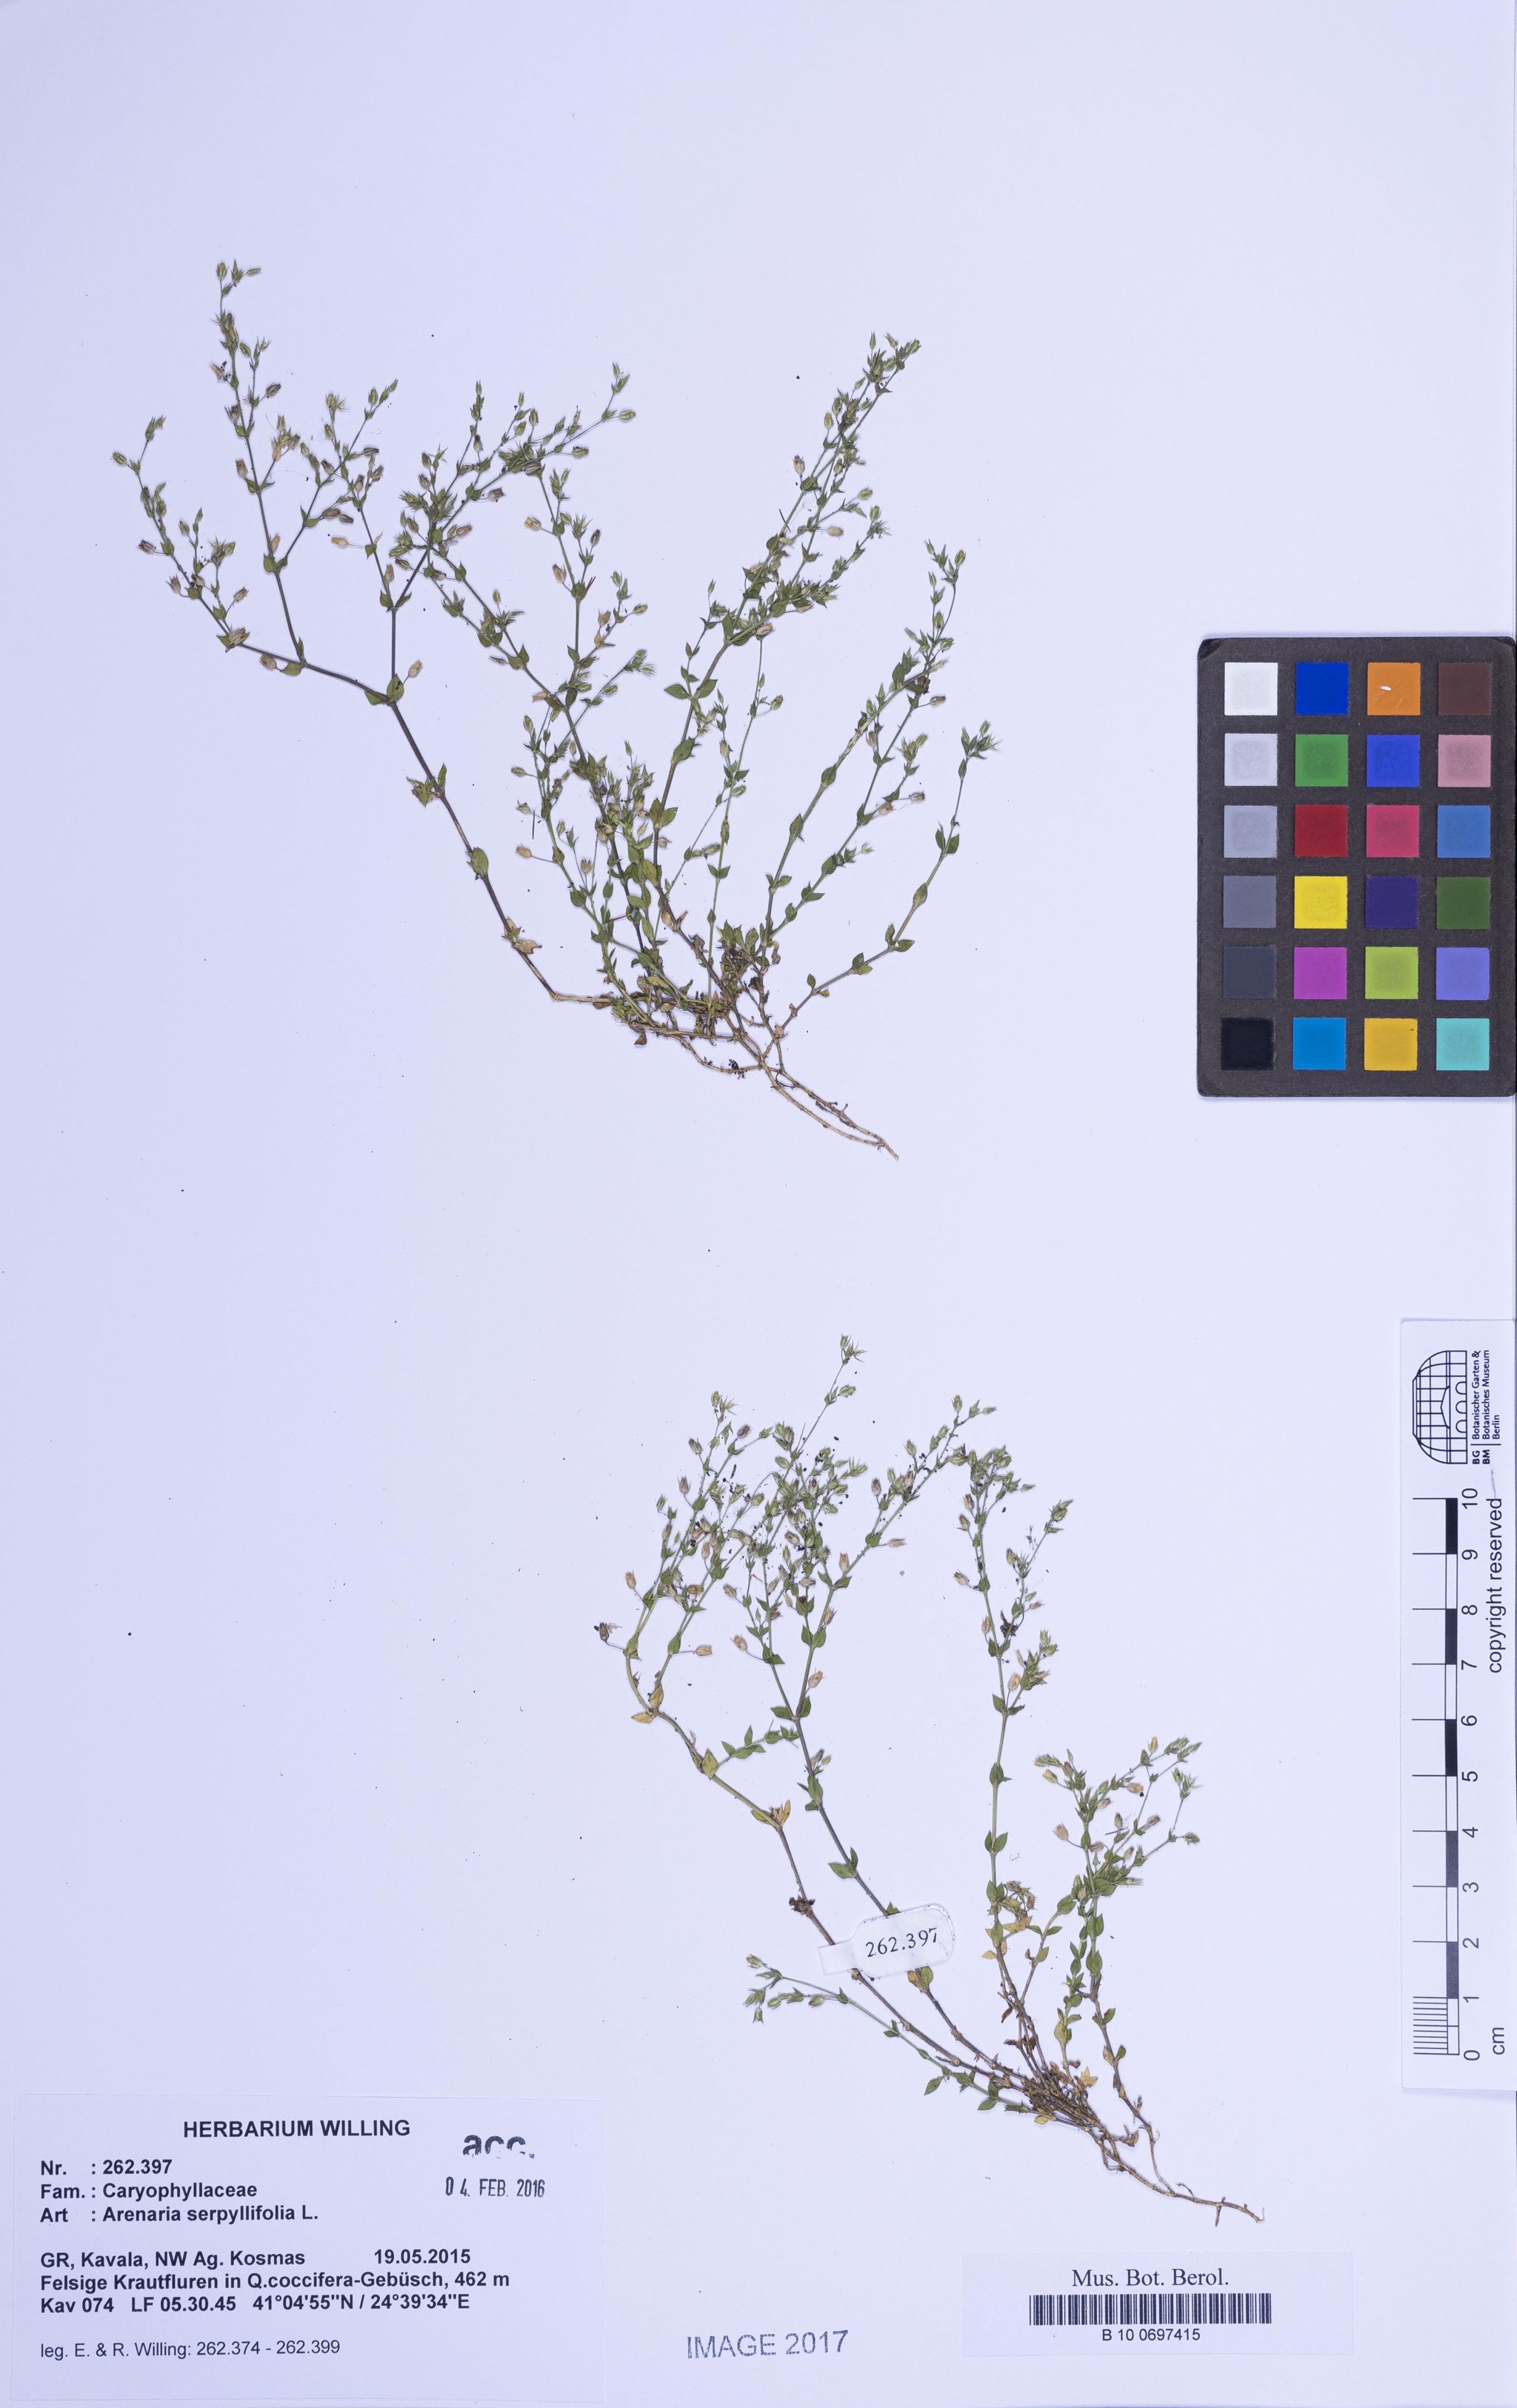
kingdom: Plantae
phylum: Tracheophyta
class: Magnoliopsida
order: Caryophyllales
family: Caryophyllaceae
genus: Arenaria
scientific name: Arenaria serpyllifolia
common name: Thyme-leaved sandwort
